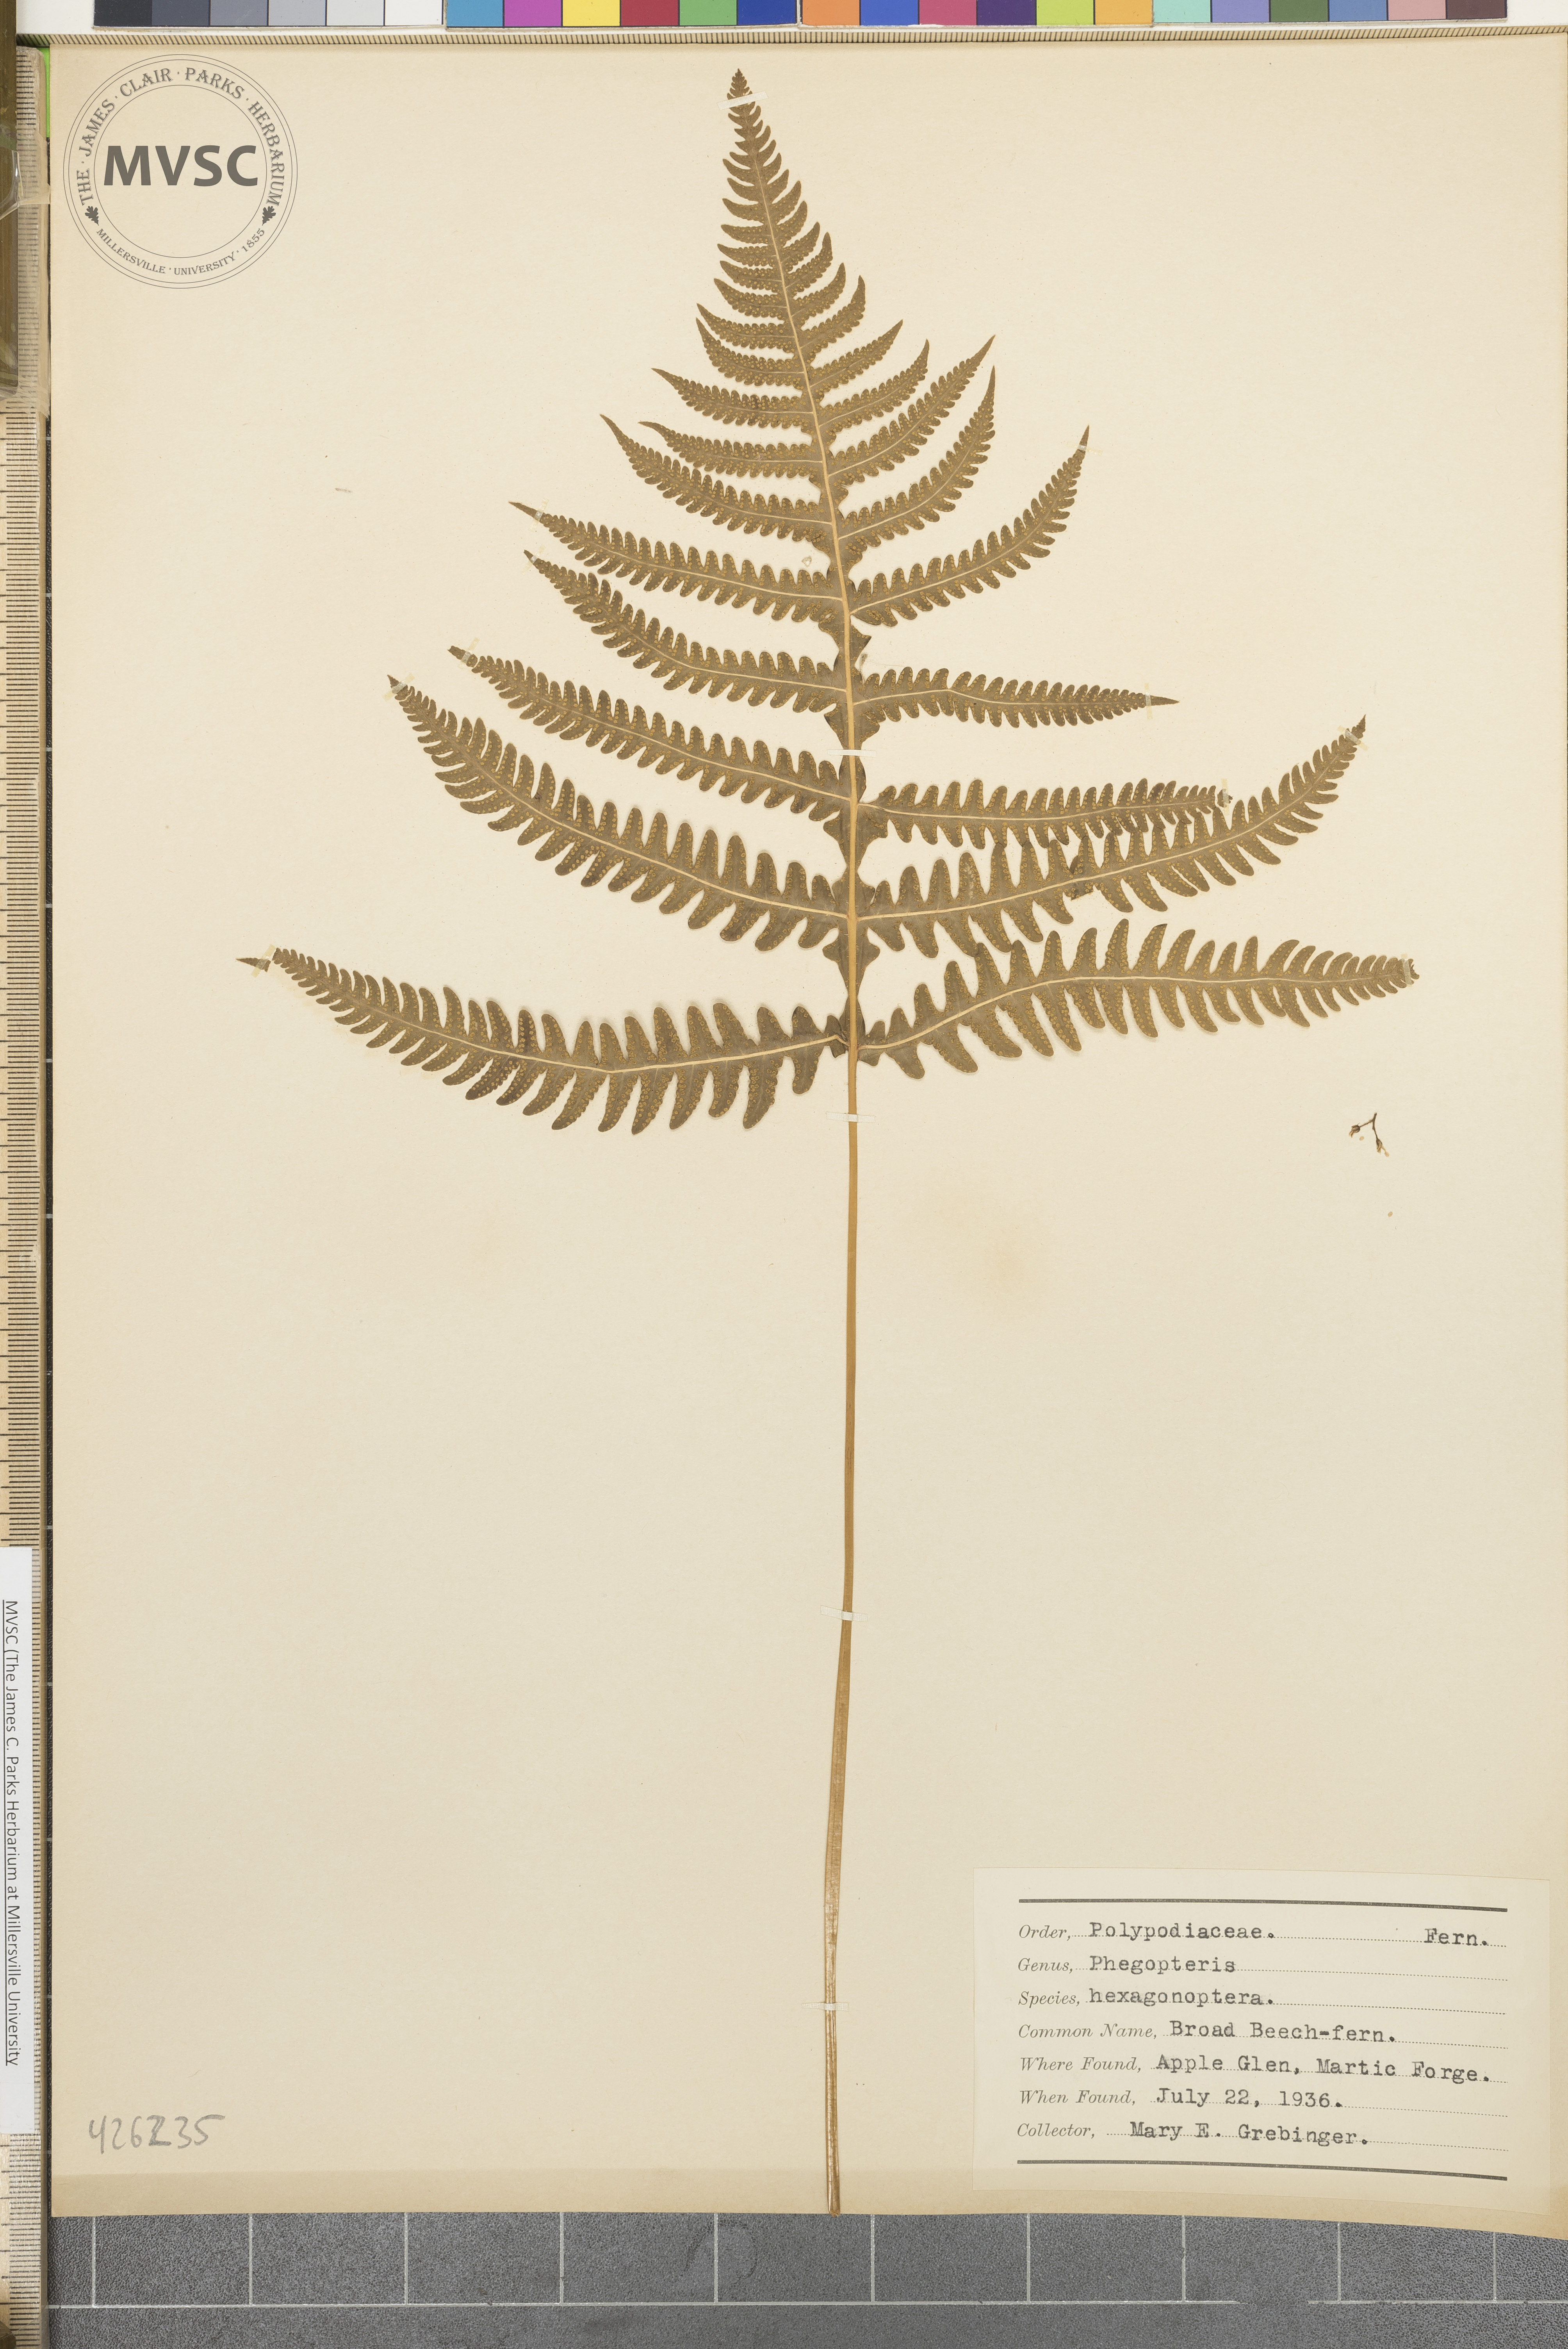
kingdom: Plantae
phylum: Tracheophyta
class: Polypodiopsida
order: Polypodiales
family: Thelypteridaceae
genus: Phegopteris
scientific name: Phegopteris hexagonoptera
